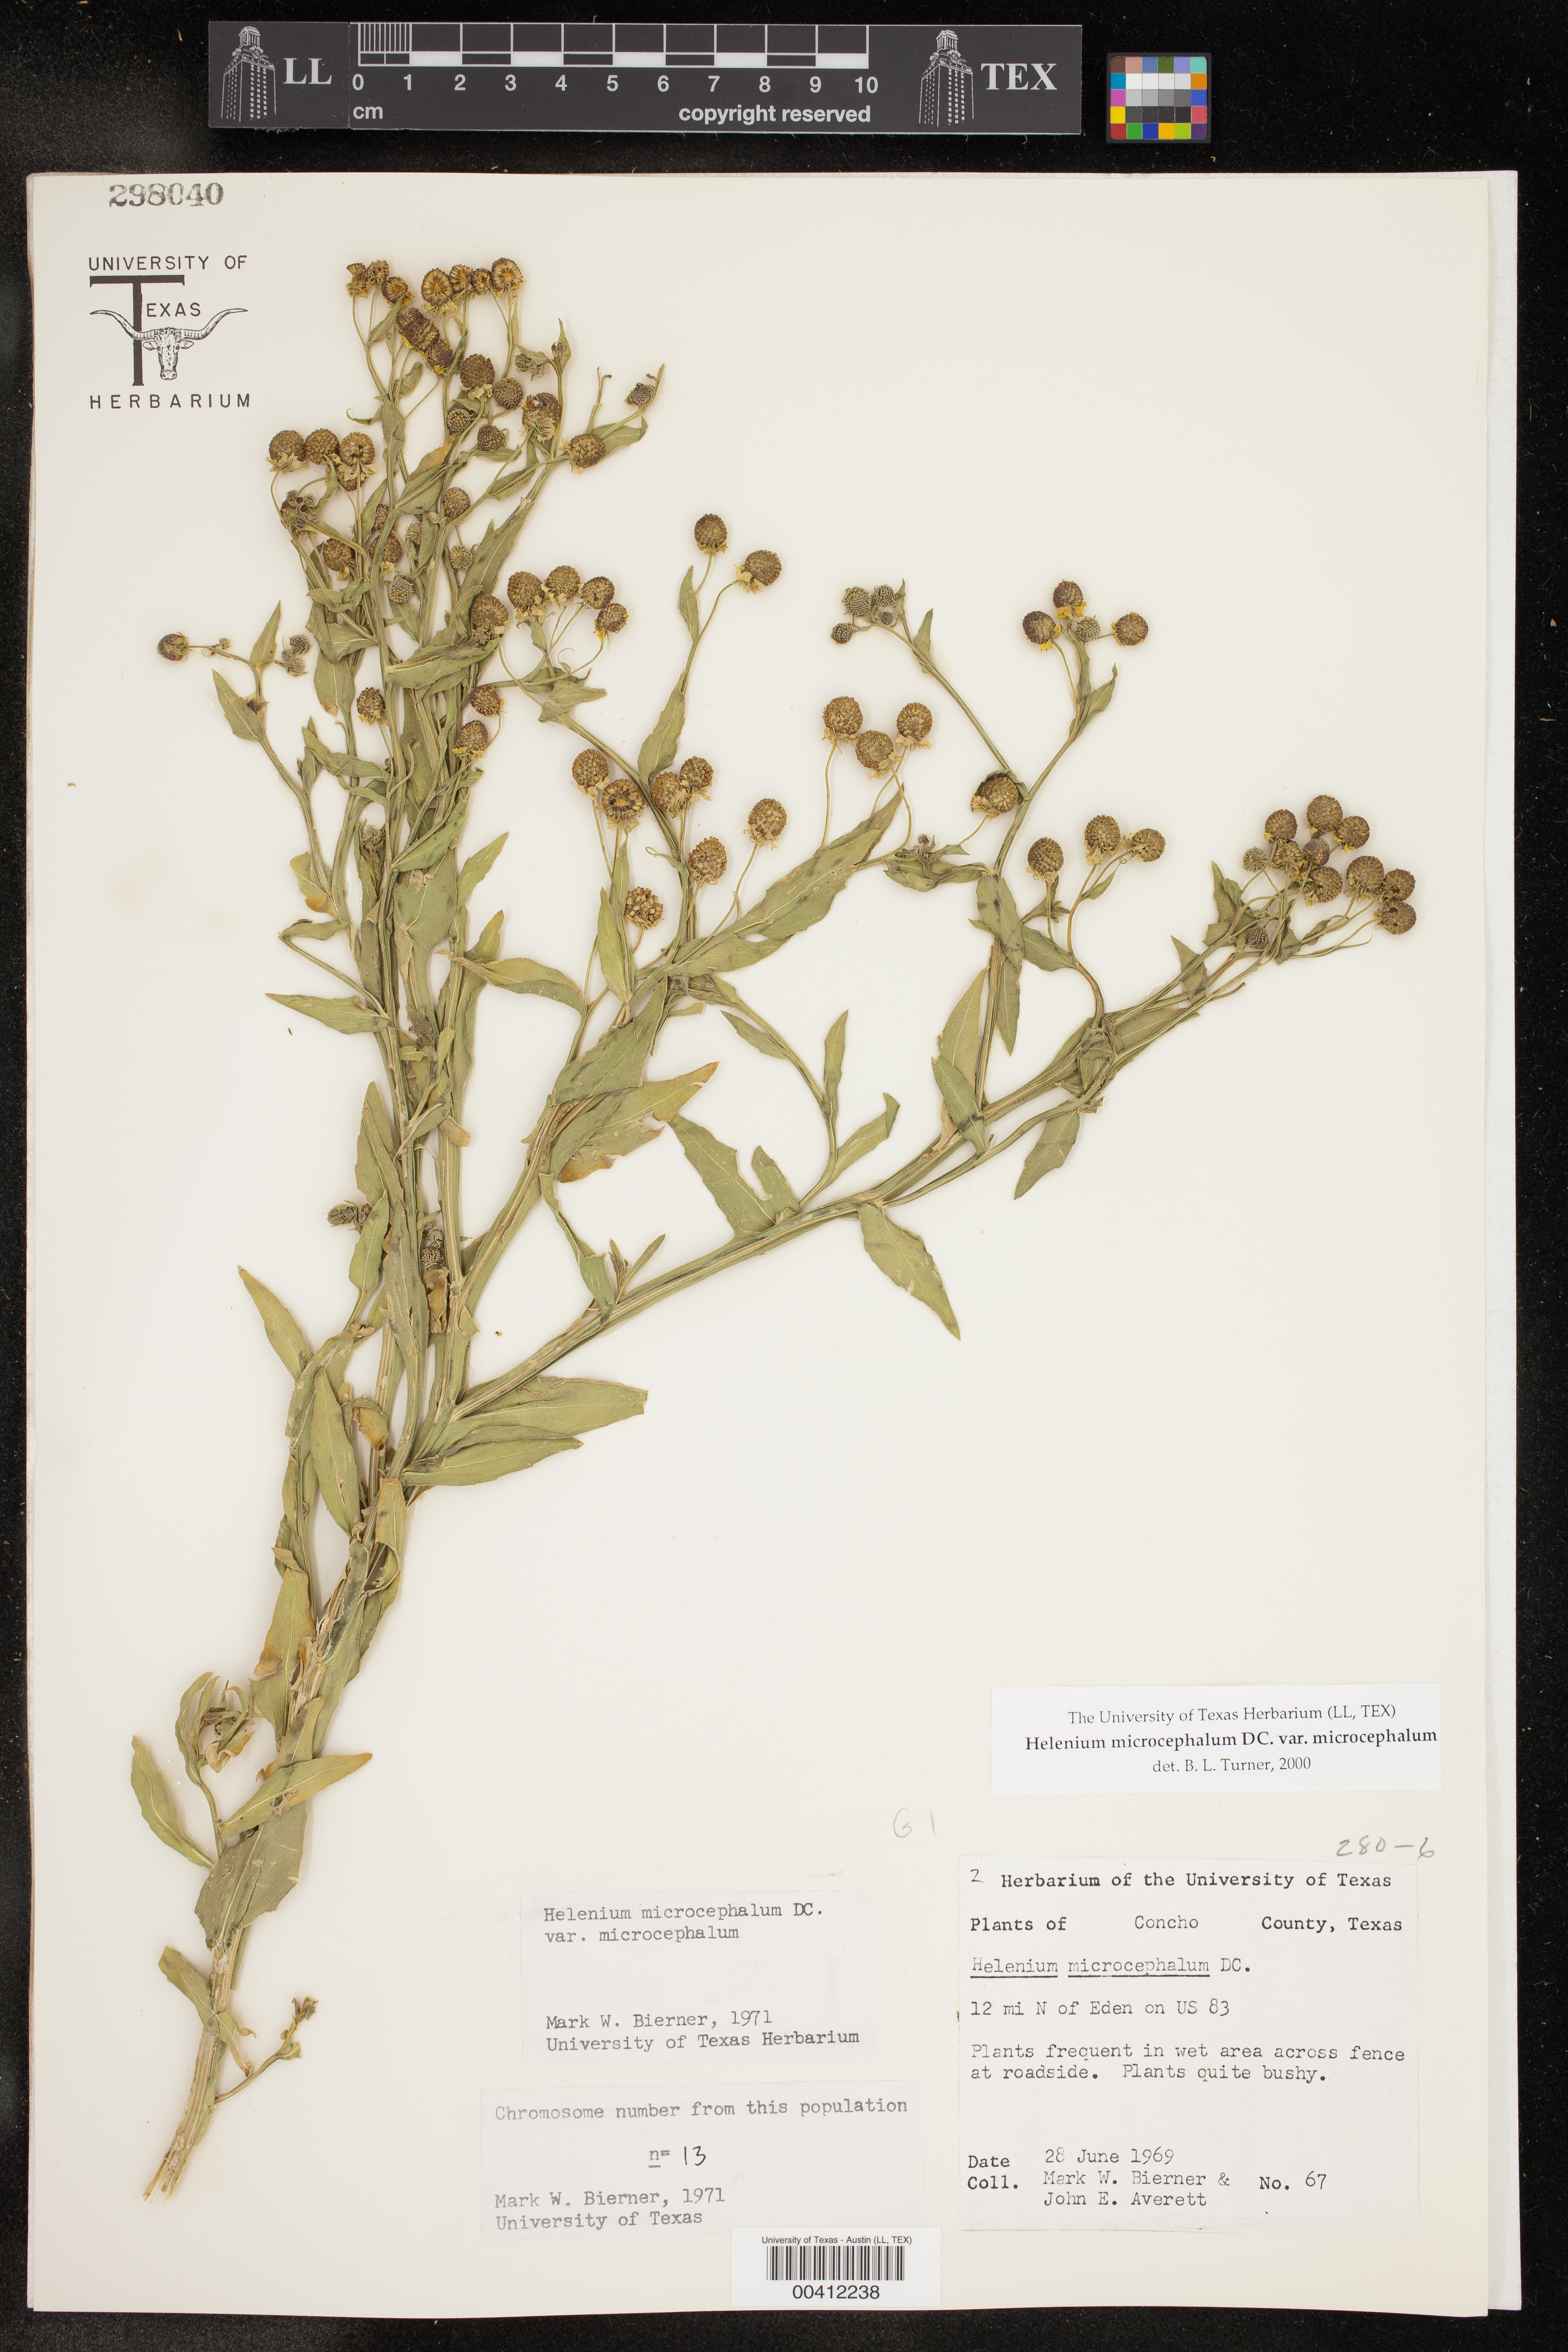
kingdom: Plantae
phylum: Tracheophyta
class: Magnoliopsida
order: Asterales
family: Asteraceae
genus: Helenium
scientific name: Helenium microcephalum
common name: Smallhead sneezeweed
